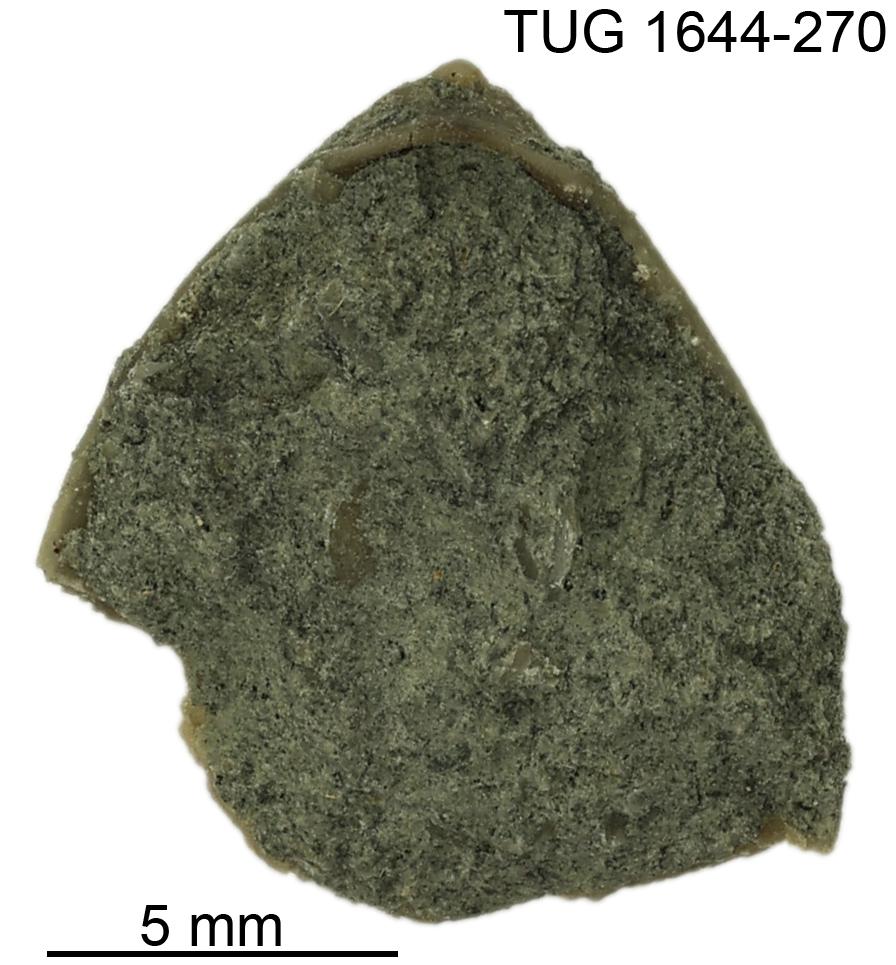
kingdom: Animalia
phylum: Mollusca
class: Monoplacophora
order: Tryblidiida
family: Tryblidiidae
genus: Pilina
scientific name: Pilina
